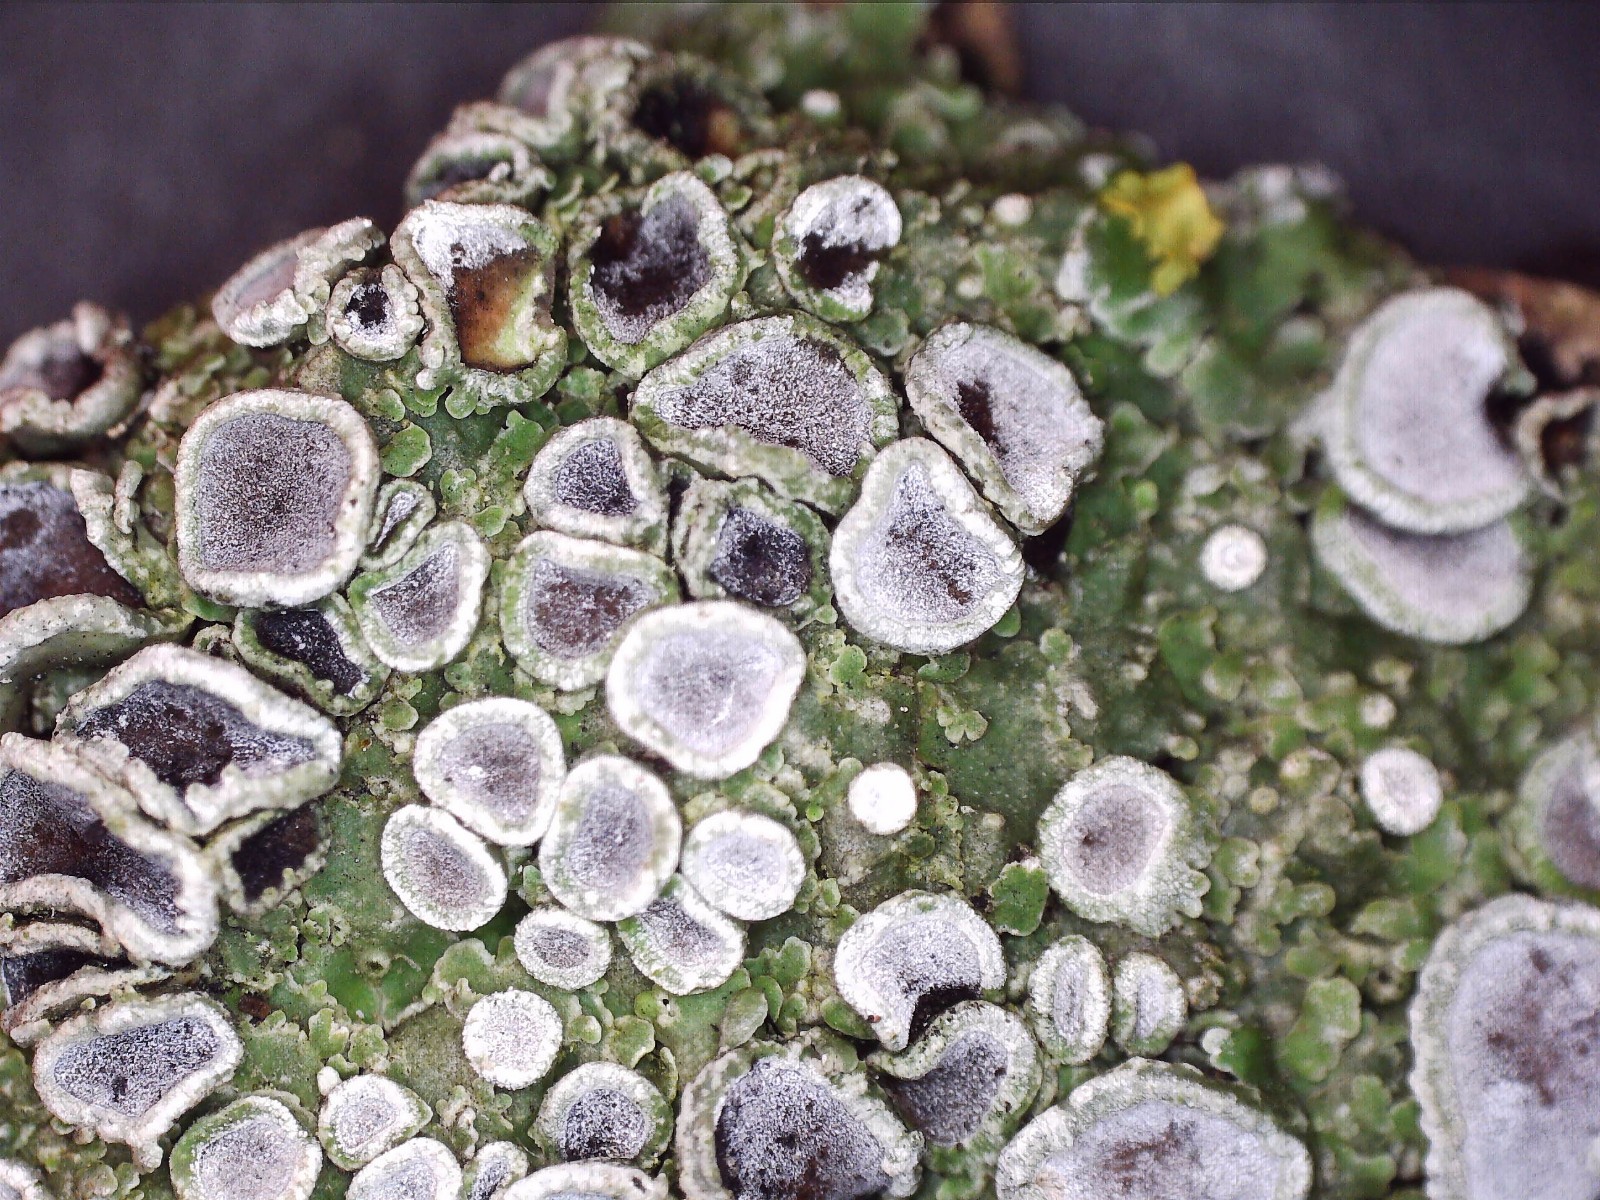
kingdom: Fungi
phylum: Ascomycota
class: Lecanoromycetes
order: Caliciales
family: Physciaceae
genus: Physconia
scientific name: Physconia distorta
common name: pudret dugrosetlav
